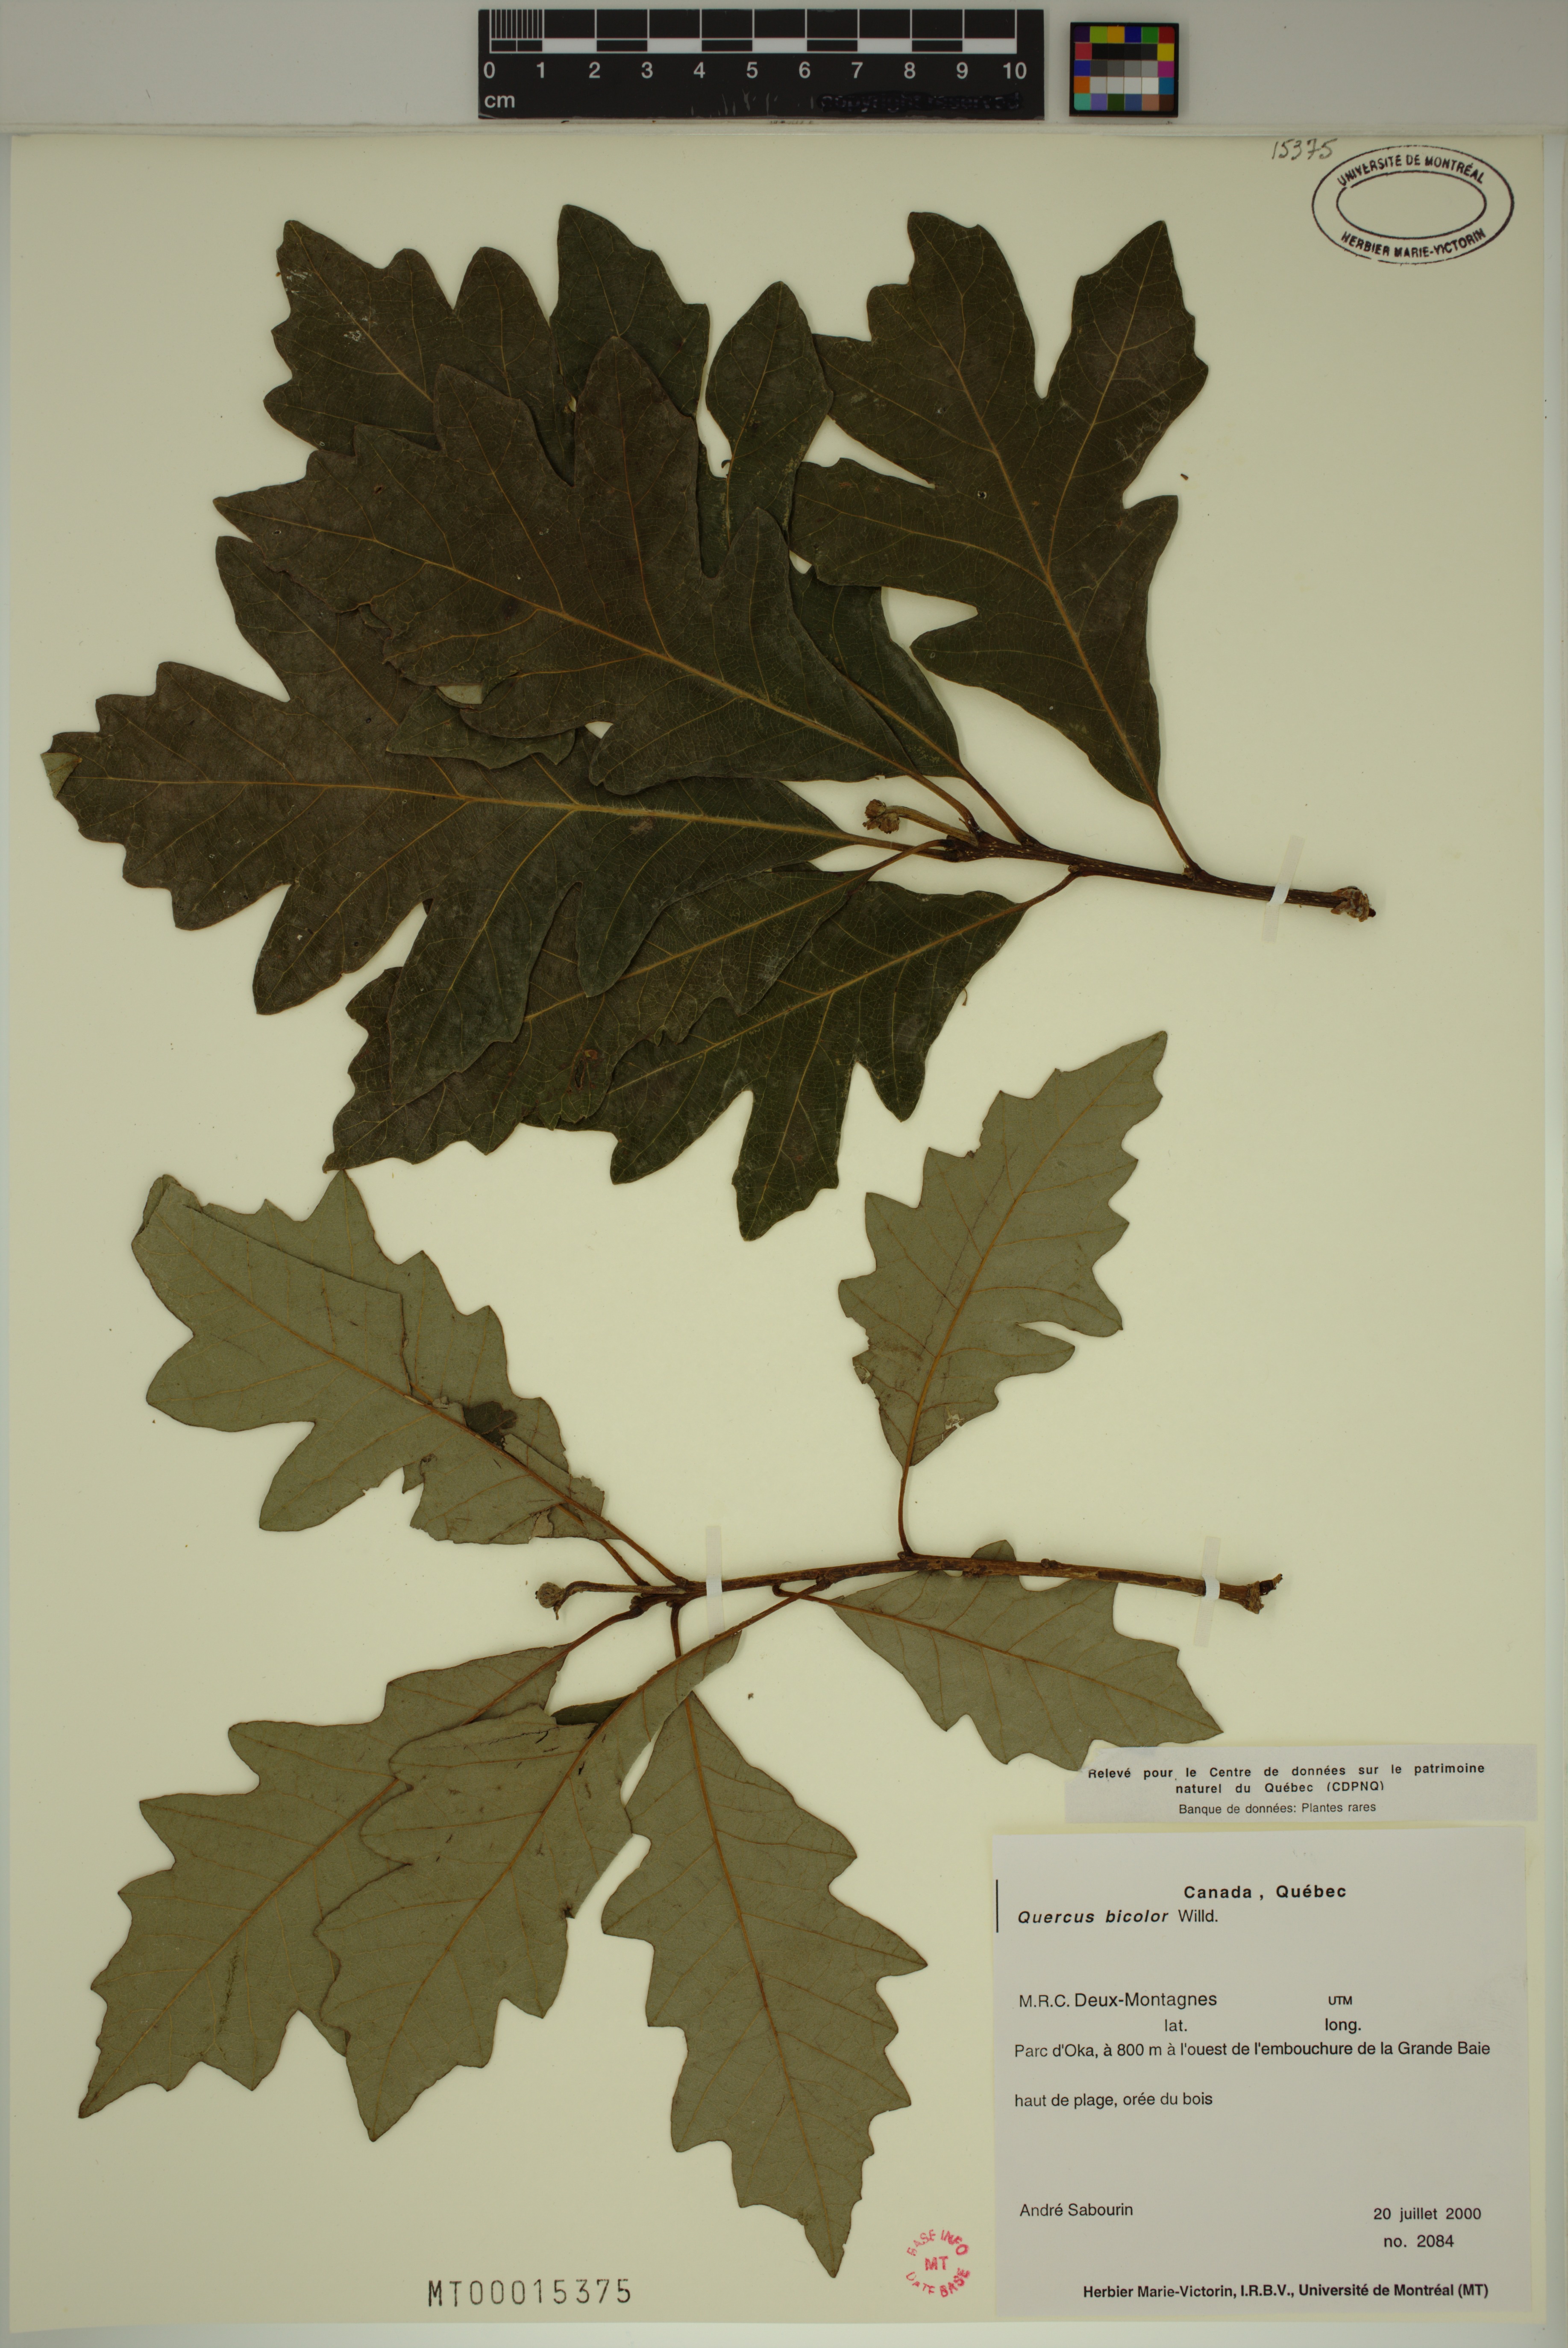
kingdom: Plantae
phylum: Tracheophyta
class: Magnoliopsida
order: Fagales
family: Fagaceae
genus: Quercus
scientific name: Quercus bicolor
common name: Swamp white oak
